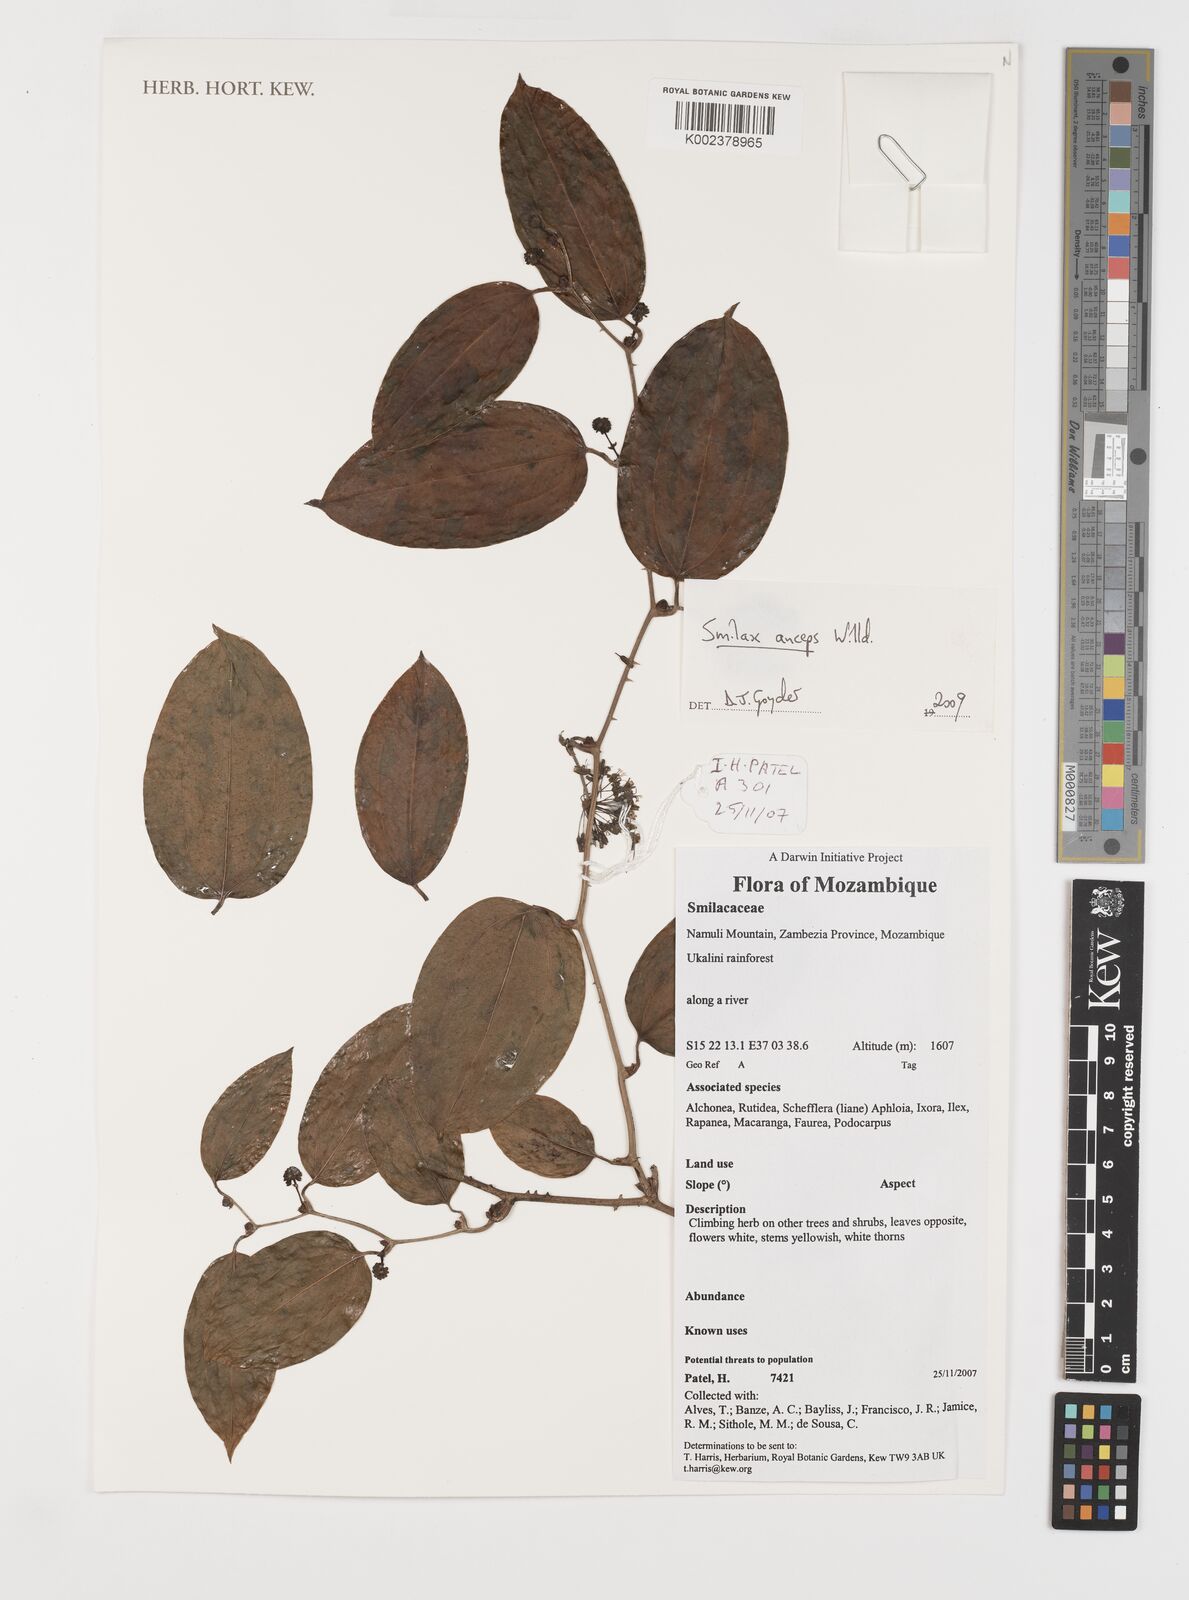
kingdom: Plantae
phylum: Tracheophyta
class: Liliopsida
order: Liliales
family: Smilacaceae
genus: Smilax
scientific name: Smilax anceps
